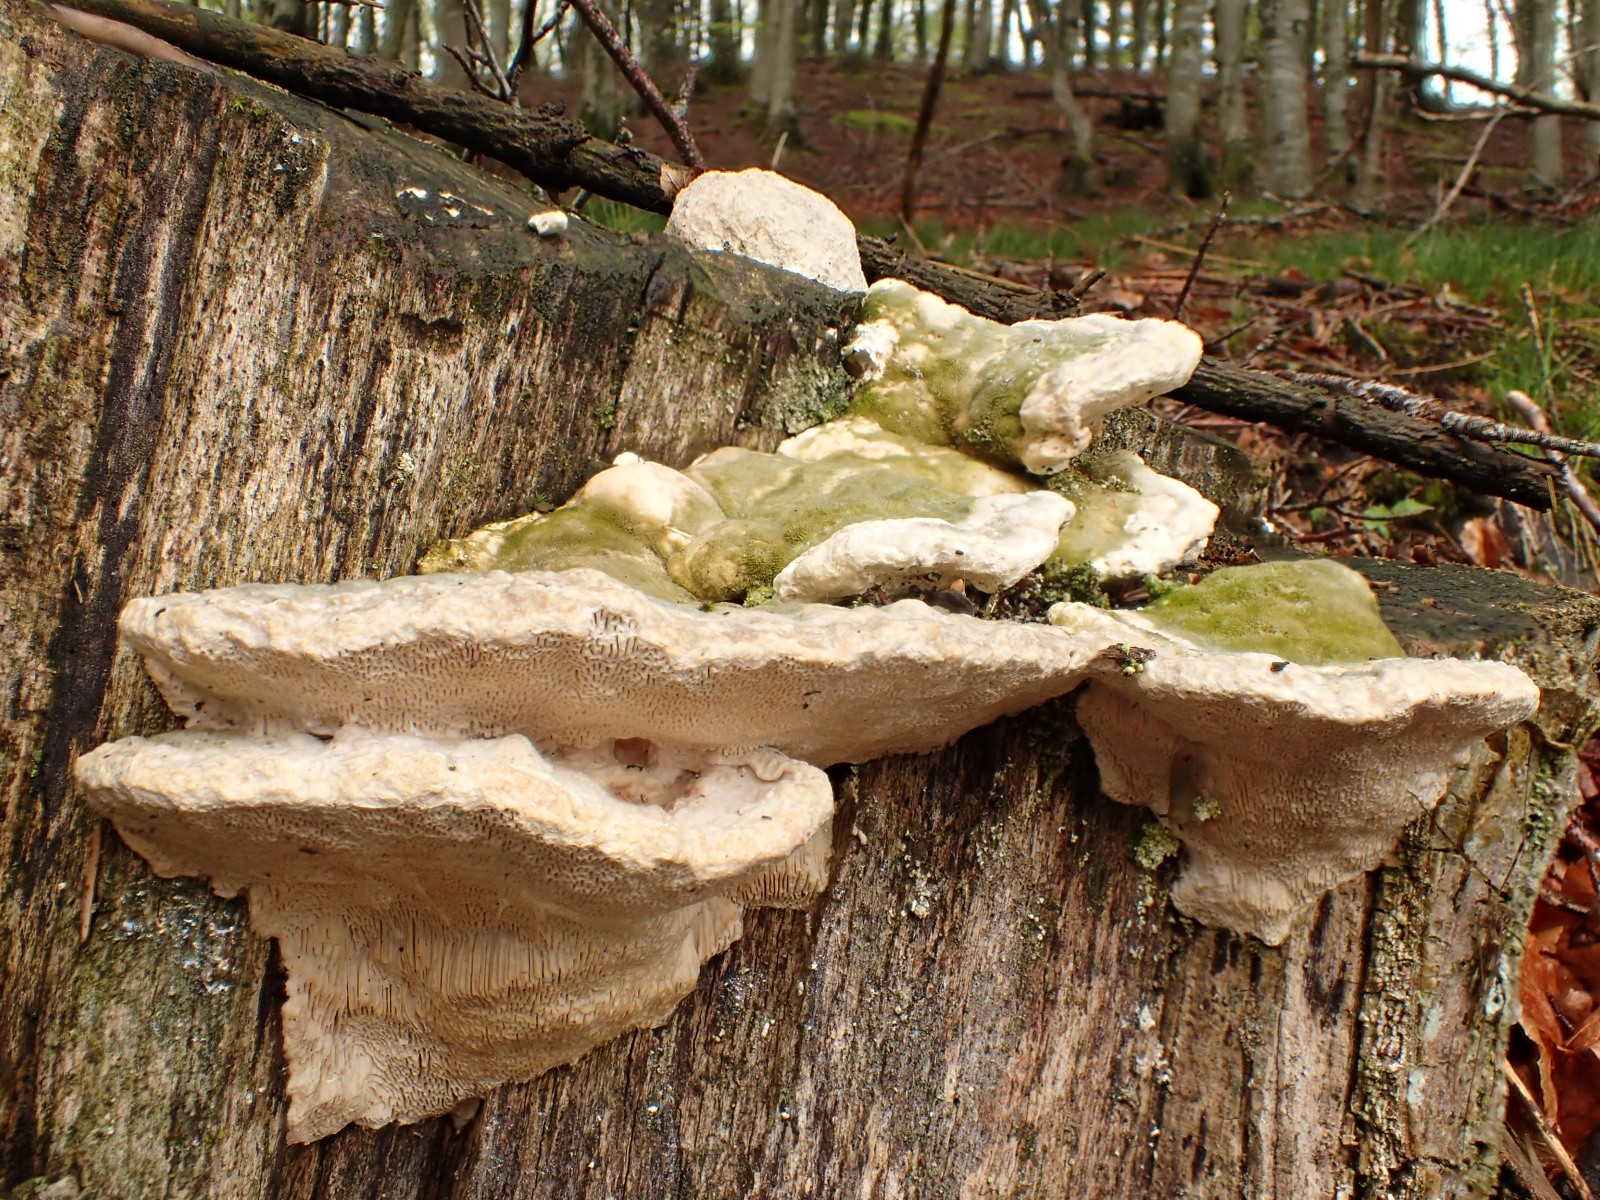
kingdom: Fungi
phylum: Basidiomycota
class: Agaricomycetes
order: Polyporales
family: Polyporaceae
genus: Trametes
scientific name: Trametes gibbosa
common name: puklet læderporesvamp
